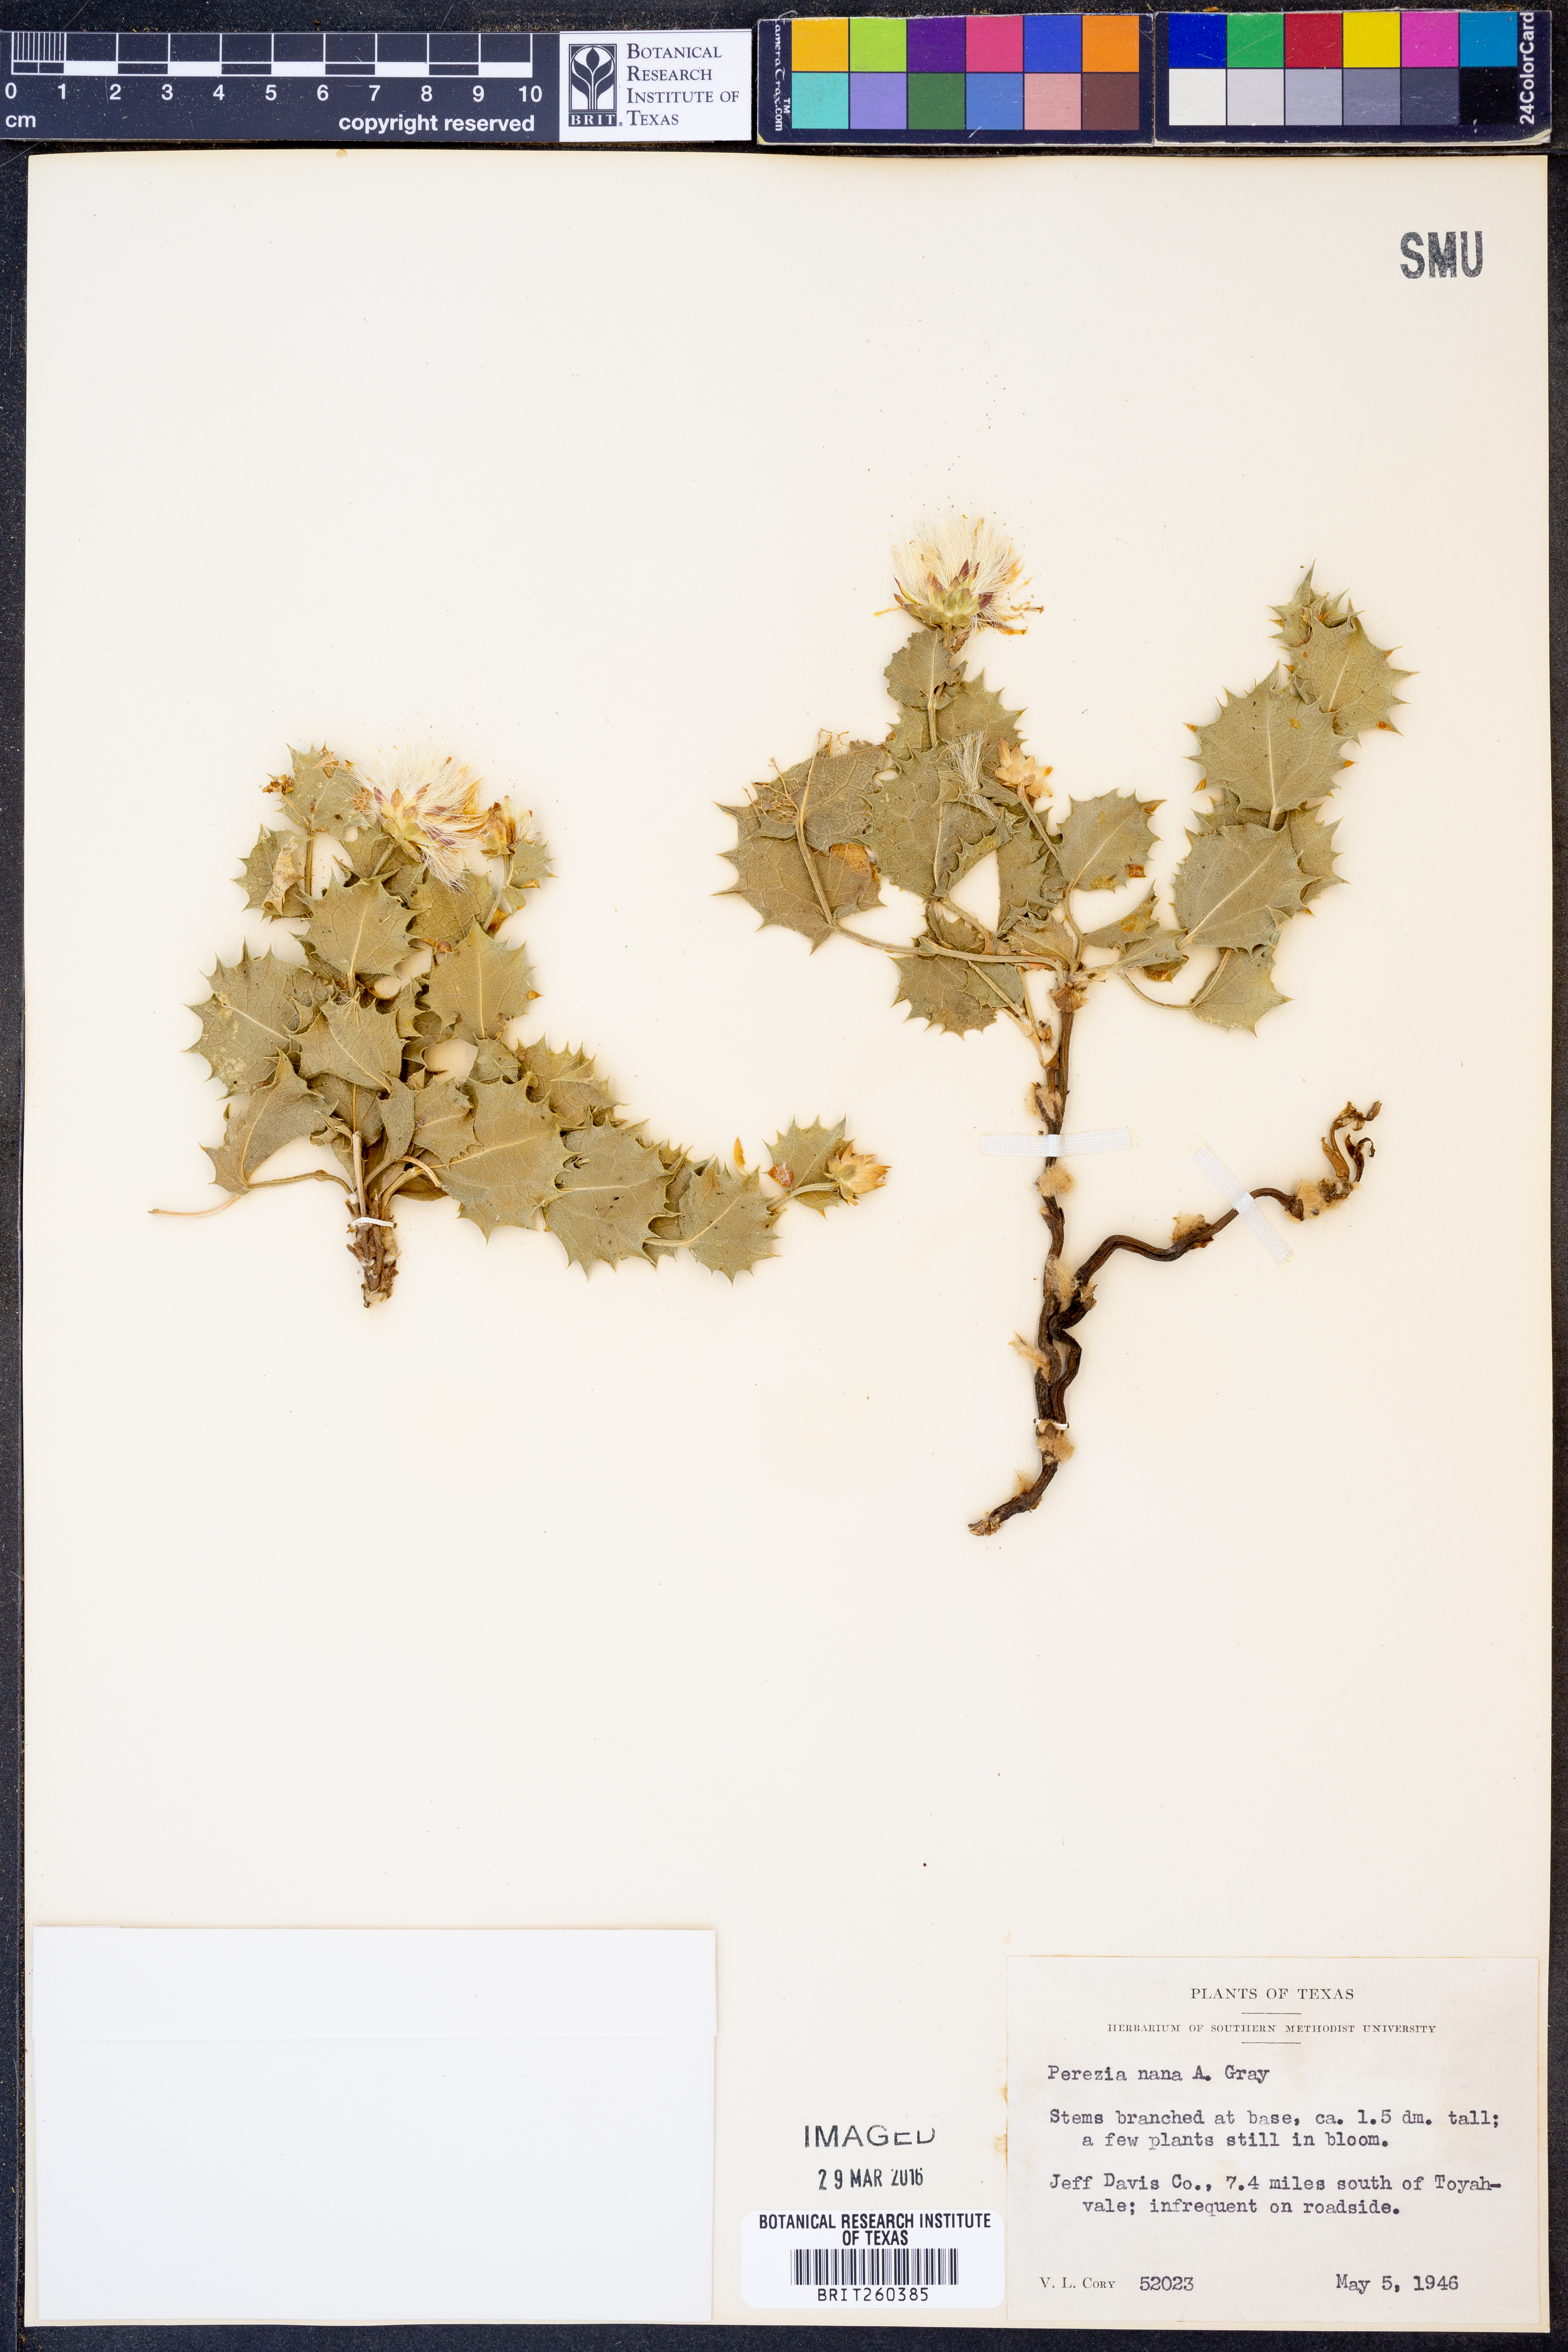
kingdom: Plantae
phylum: Tracheophyta
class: Magnoliopsida
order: Asterales
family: Asteraceae
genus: Acourtia
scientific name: Acourtia nana
